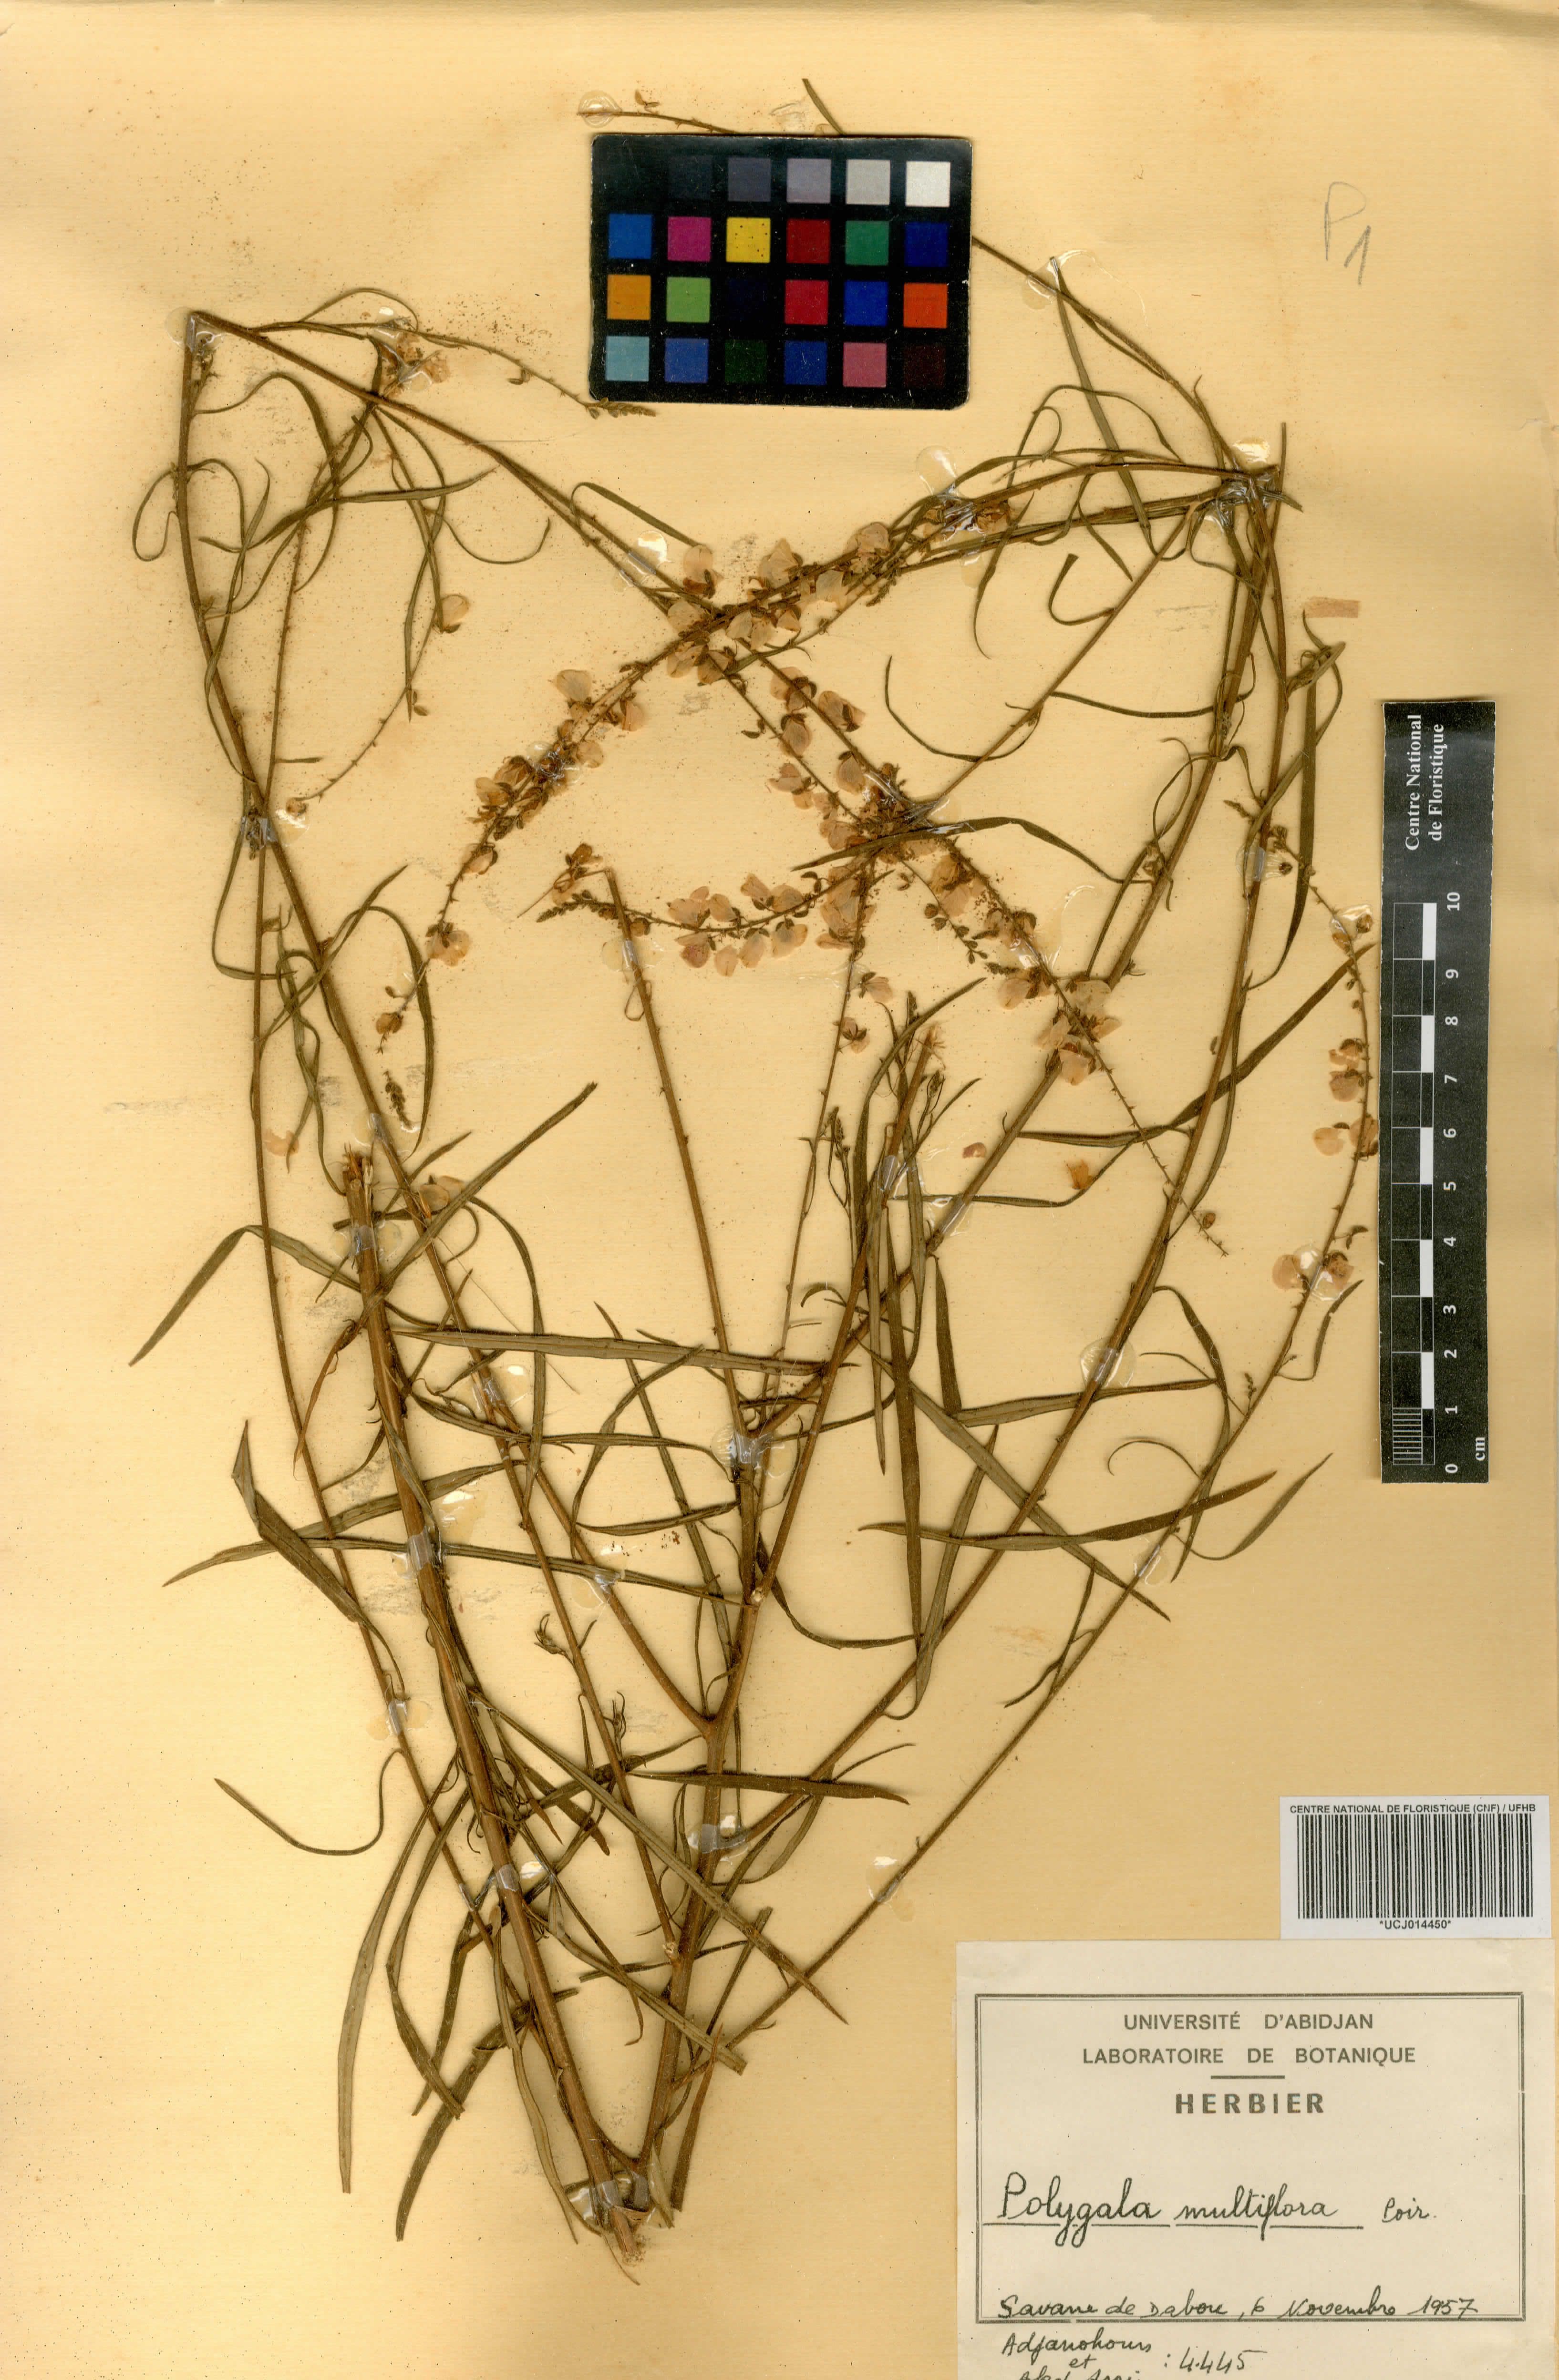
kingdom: Plantae
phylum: Tracheophyta
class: Magnoliopsida
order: Fabales
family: Polygalaceae
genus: Polygala
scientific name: Polygala multiflora
